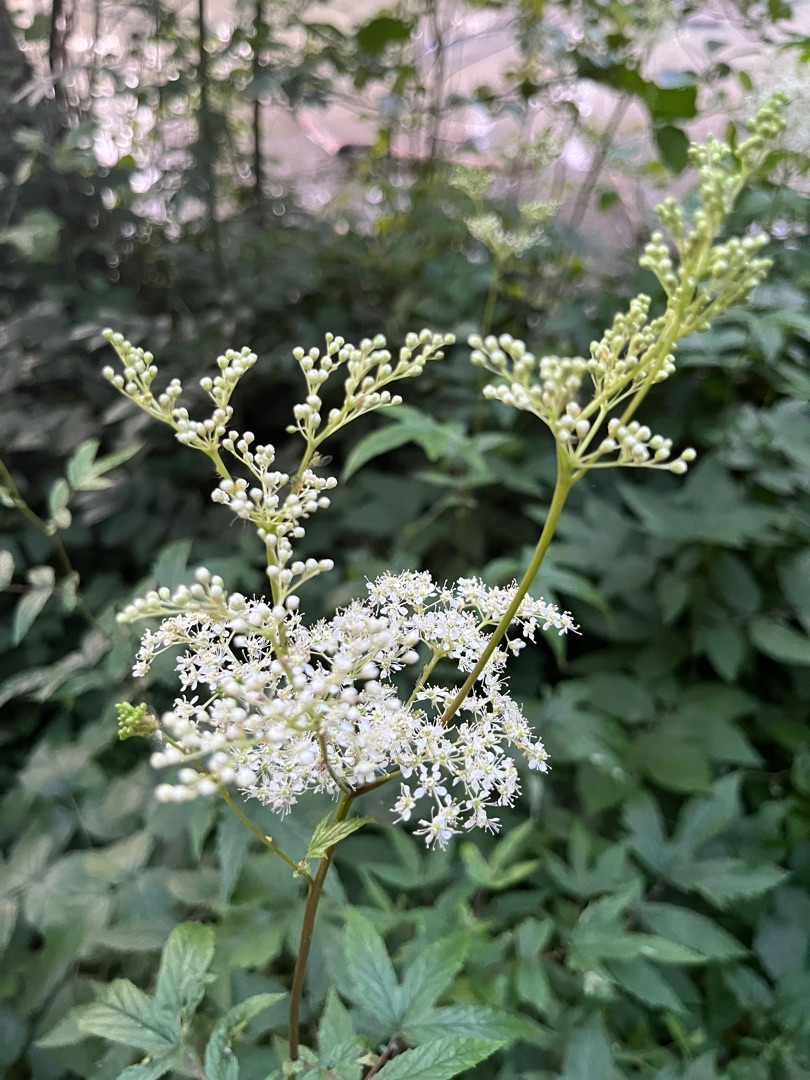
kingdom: Plantae
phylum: Tracheophyta
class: Magnoliopsida
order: Rosales
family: Rosaceae
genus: Filipendula
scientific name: Filipendula ulmaria
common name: Almindelig mjødurt
